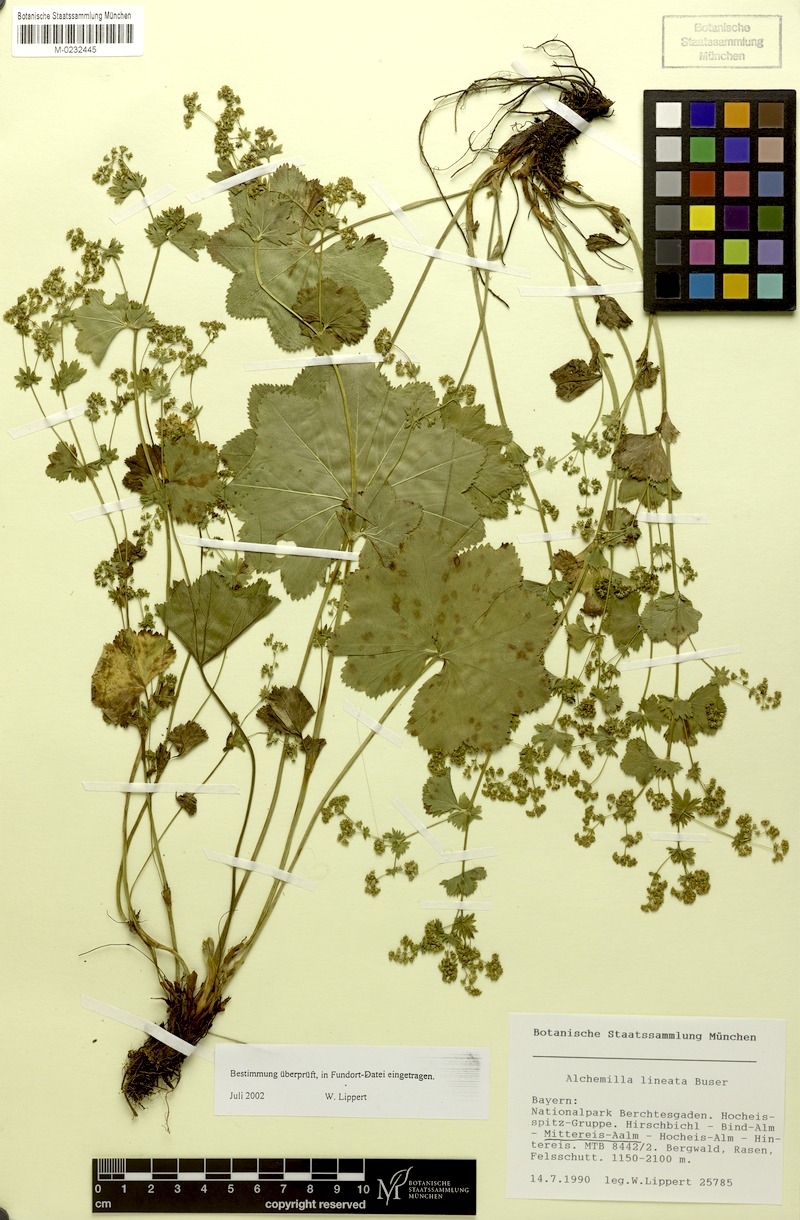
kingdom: Plantae
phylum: Tracheophyta
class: Magnoliopsida
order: Rosales
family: Rosaceae
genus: Alchemilla
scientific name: Alchemilla lineata
